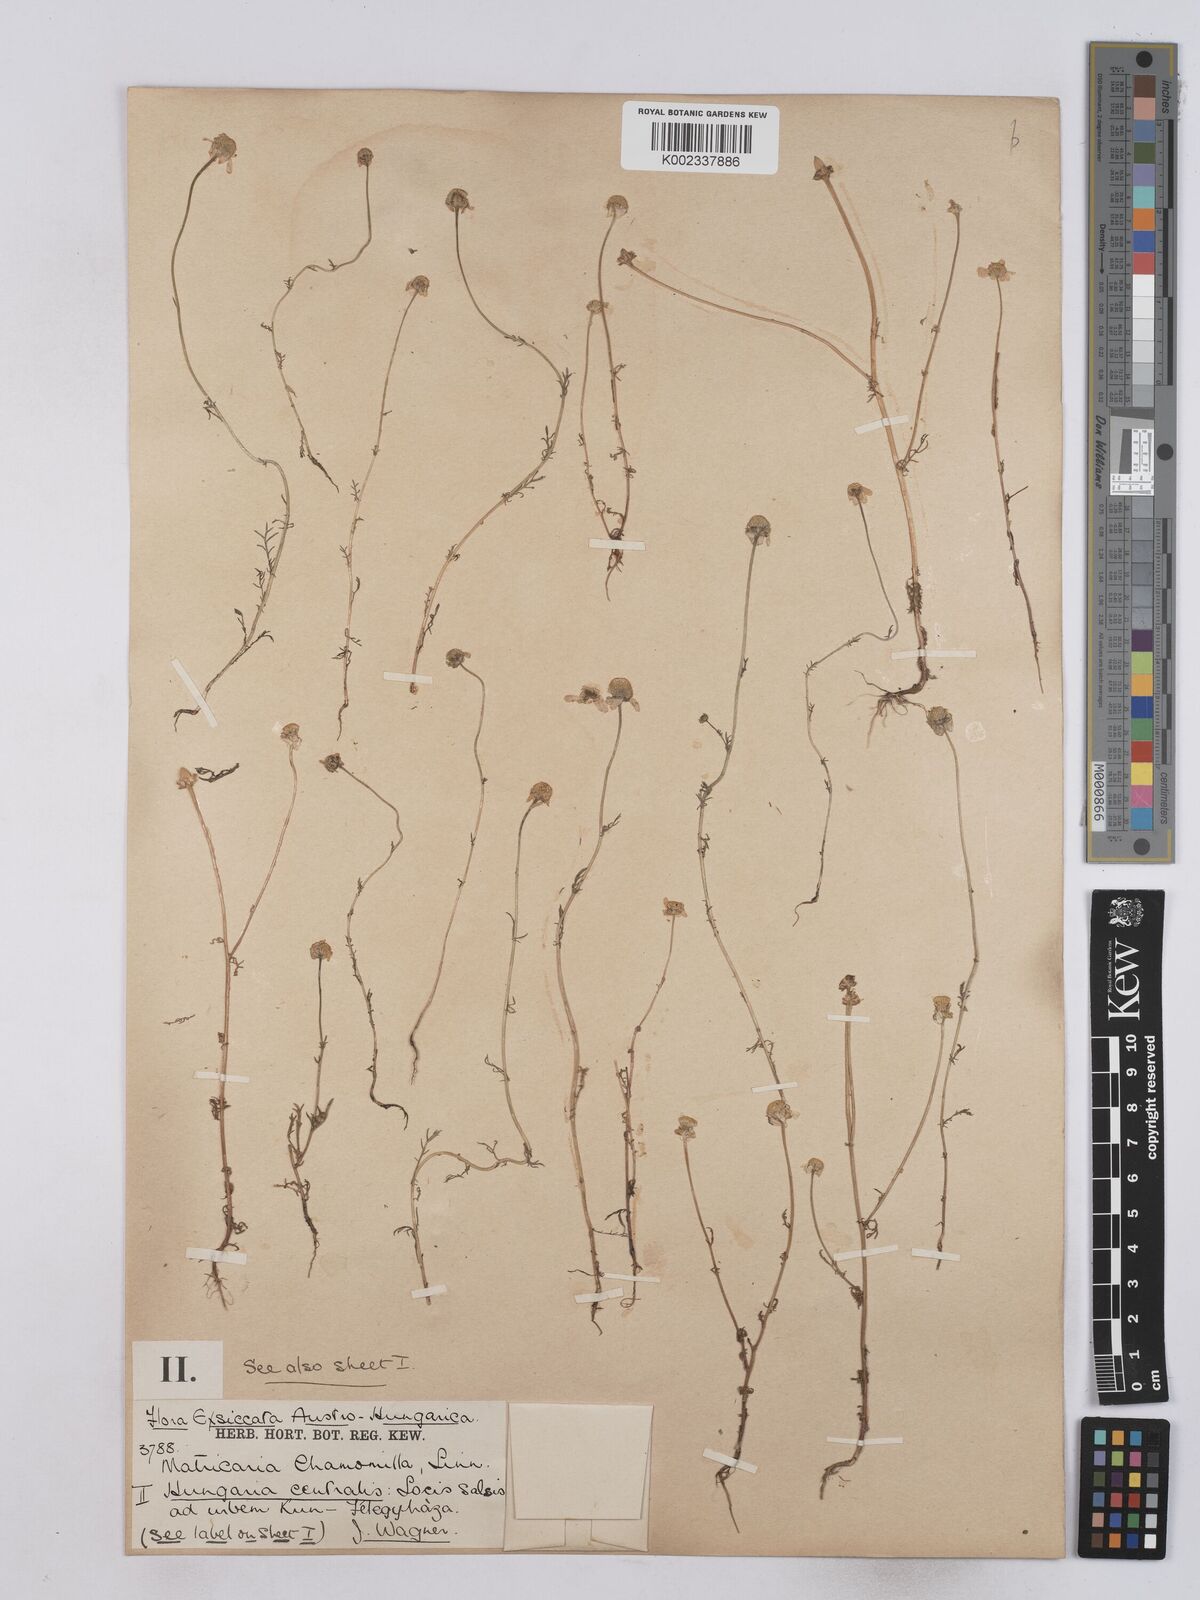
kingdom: Plantae
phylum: Tracheophyta
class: Magnoliopsida
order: Asterales
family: Asteraceae
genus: Matricaria
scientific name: Matricaria chamomilla
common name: Scented mayweed
